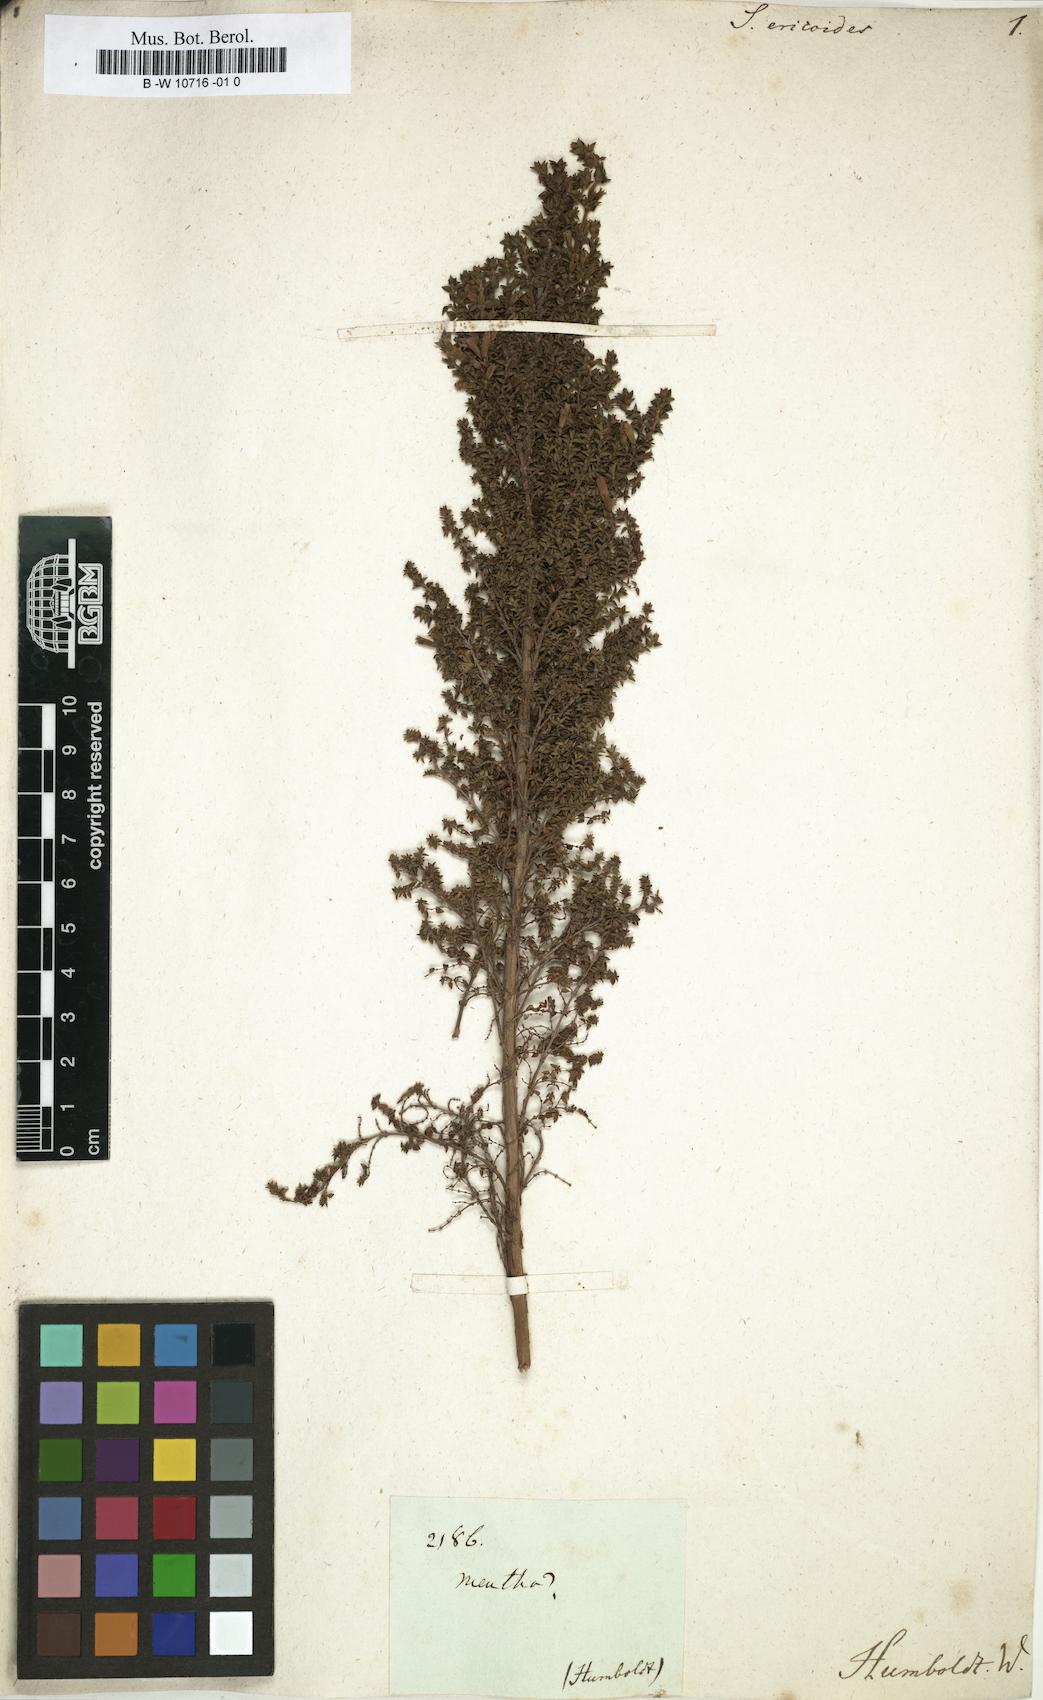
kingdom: Plantae
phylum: Tracheophyta
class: Magnoliopsida
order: Lamiales
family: Lamiaceae
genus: Clinopodium
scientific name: Clinopodium jamesonii
